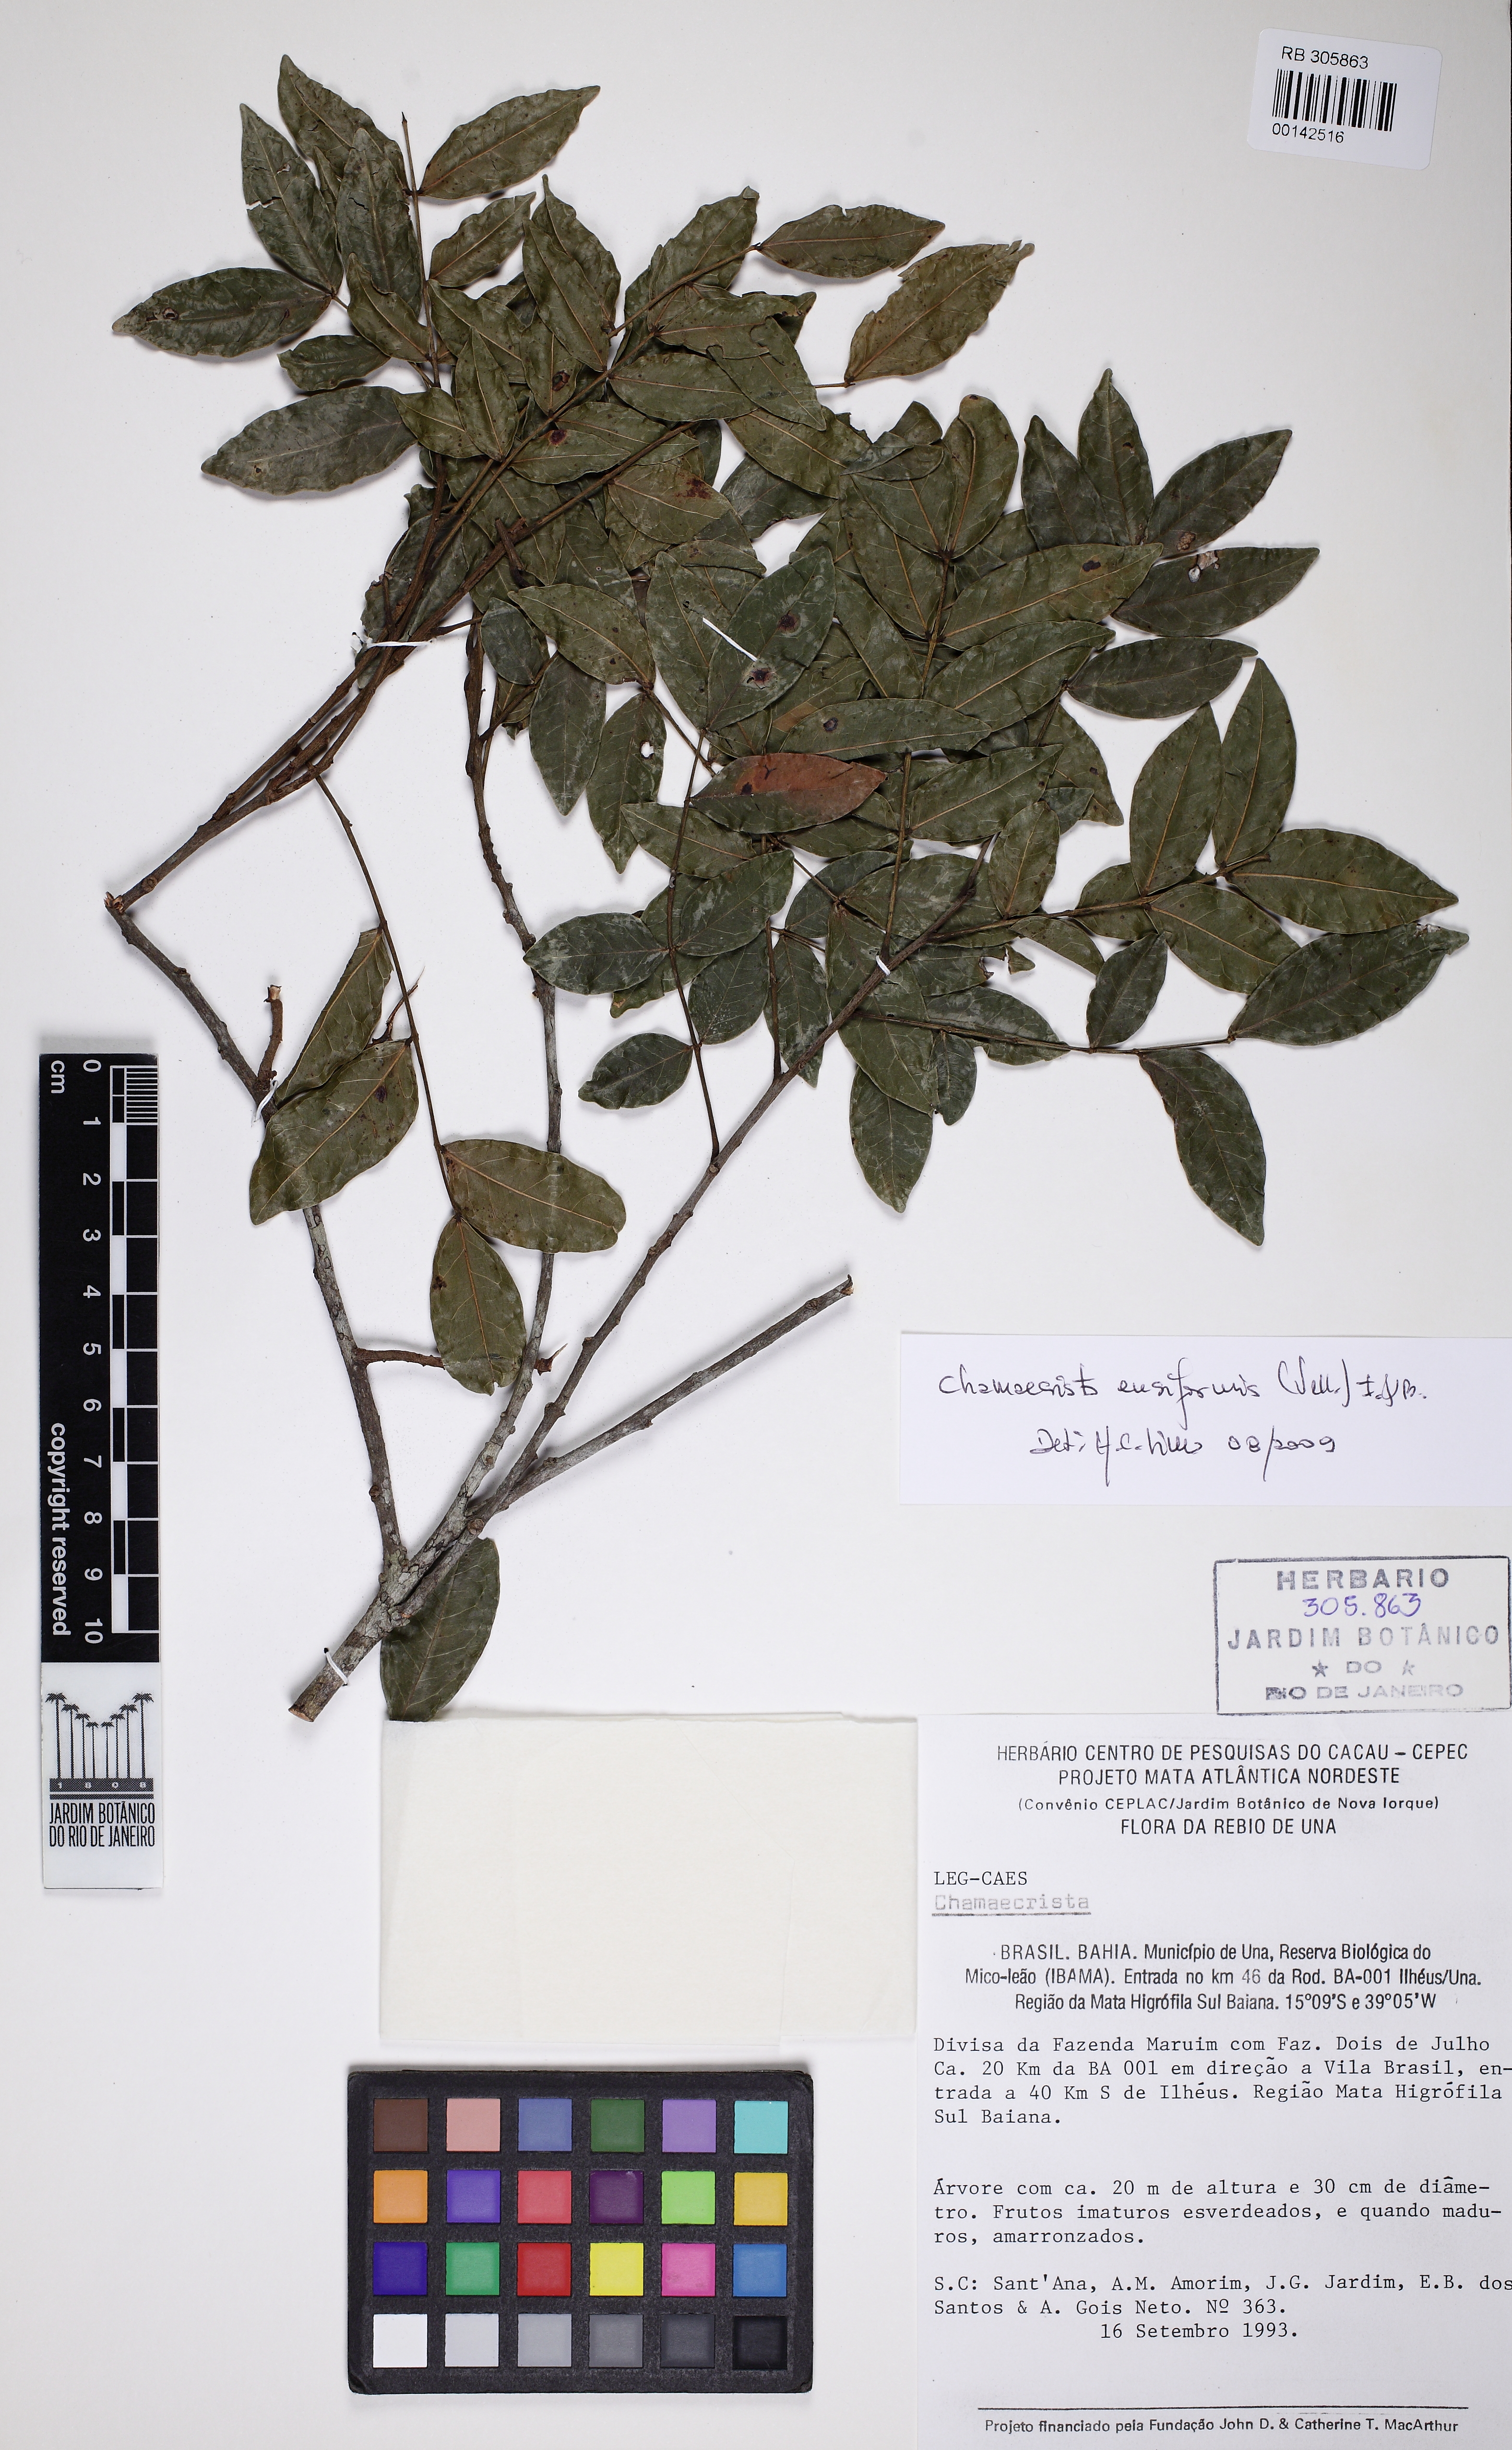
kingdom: Plantae
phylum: Tracheophyta
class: Magnoliopsida
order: Fabales
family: Fabaceae
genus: Chamaecrista
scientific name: Chamaecrista ensiformis
